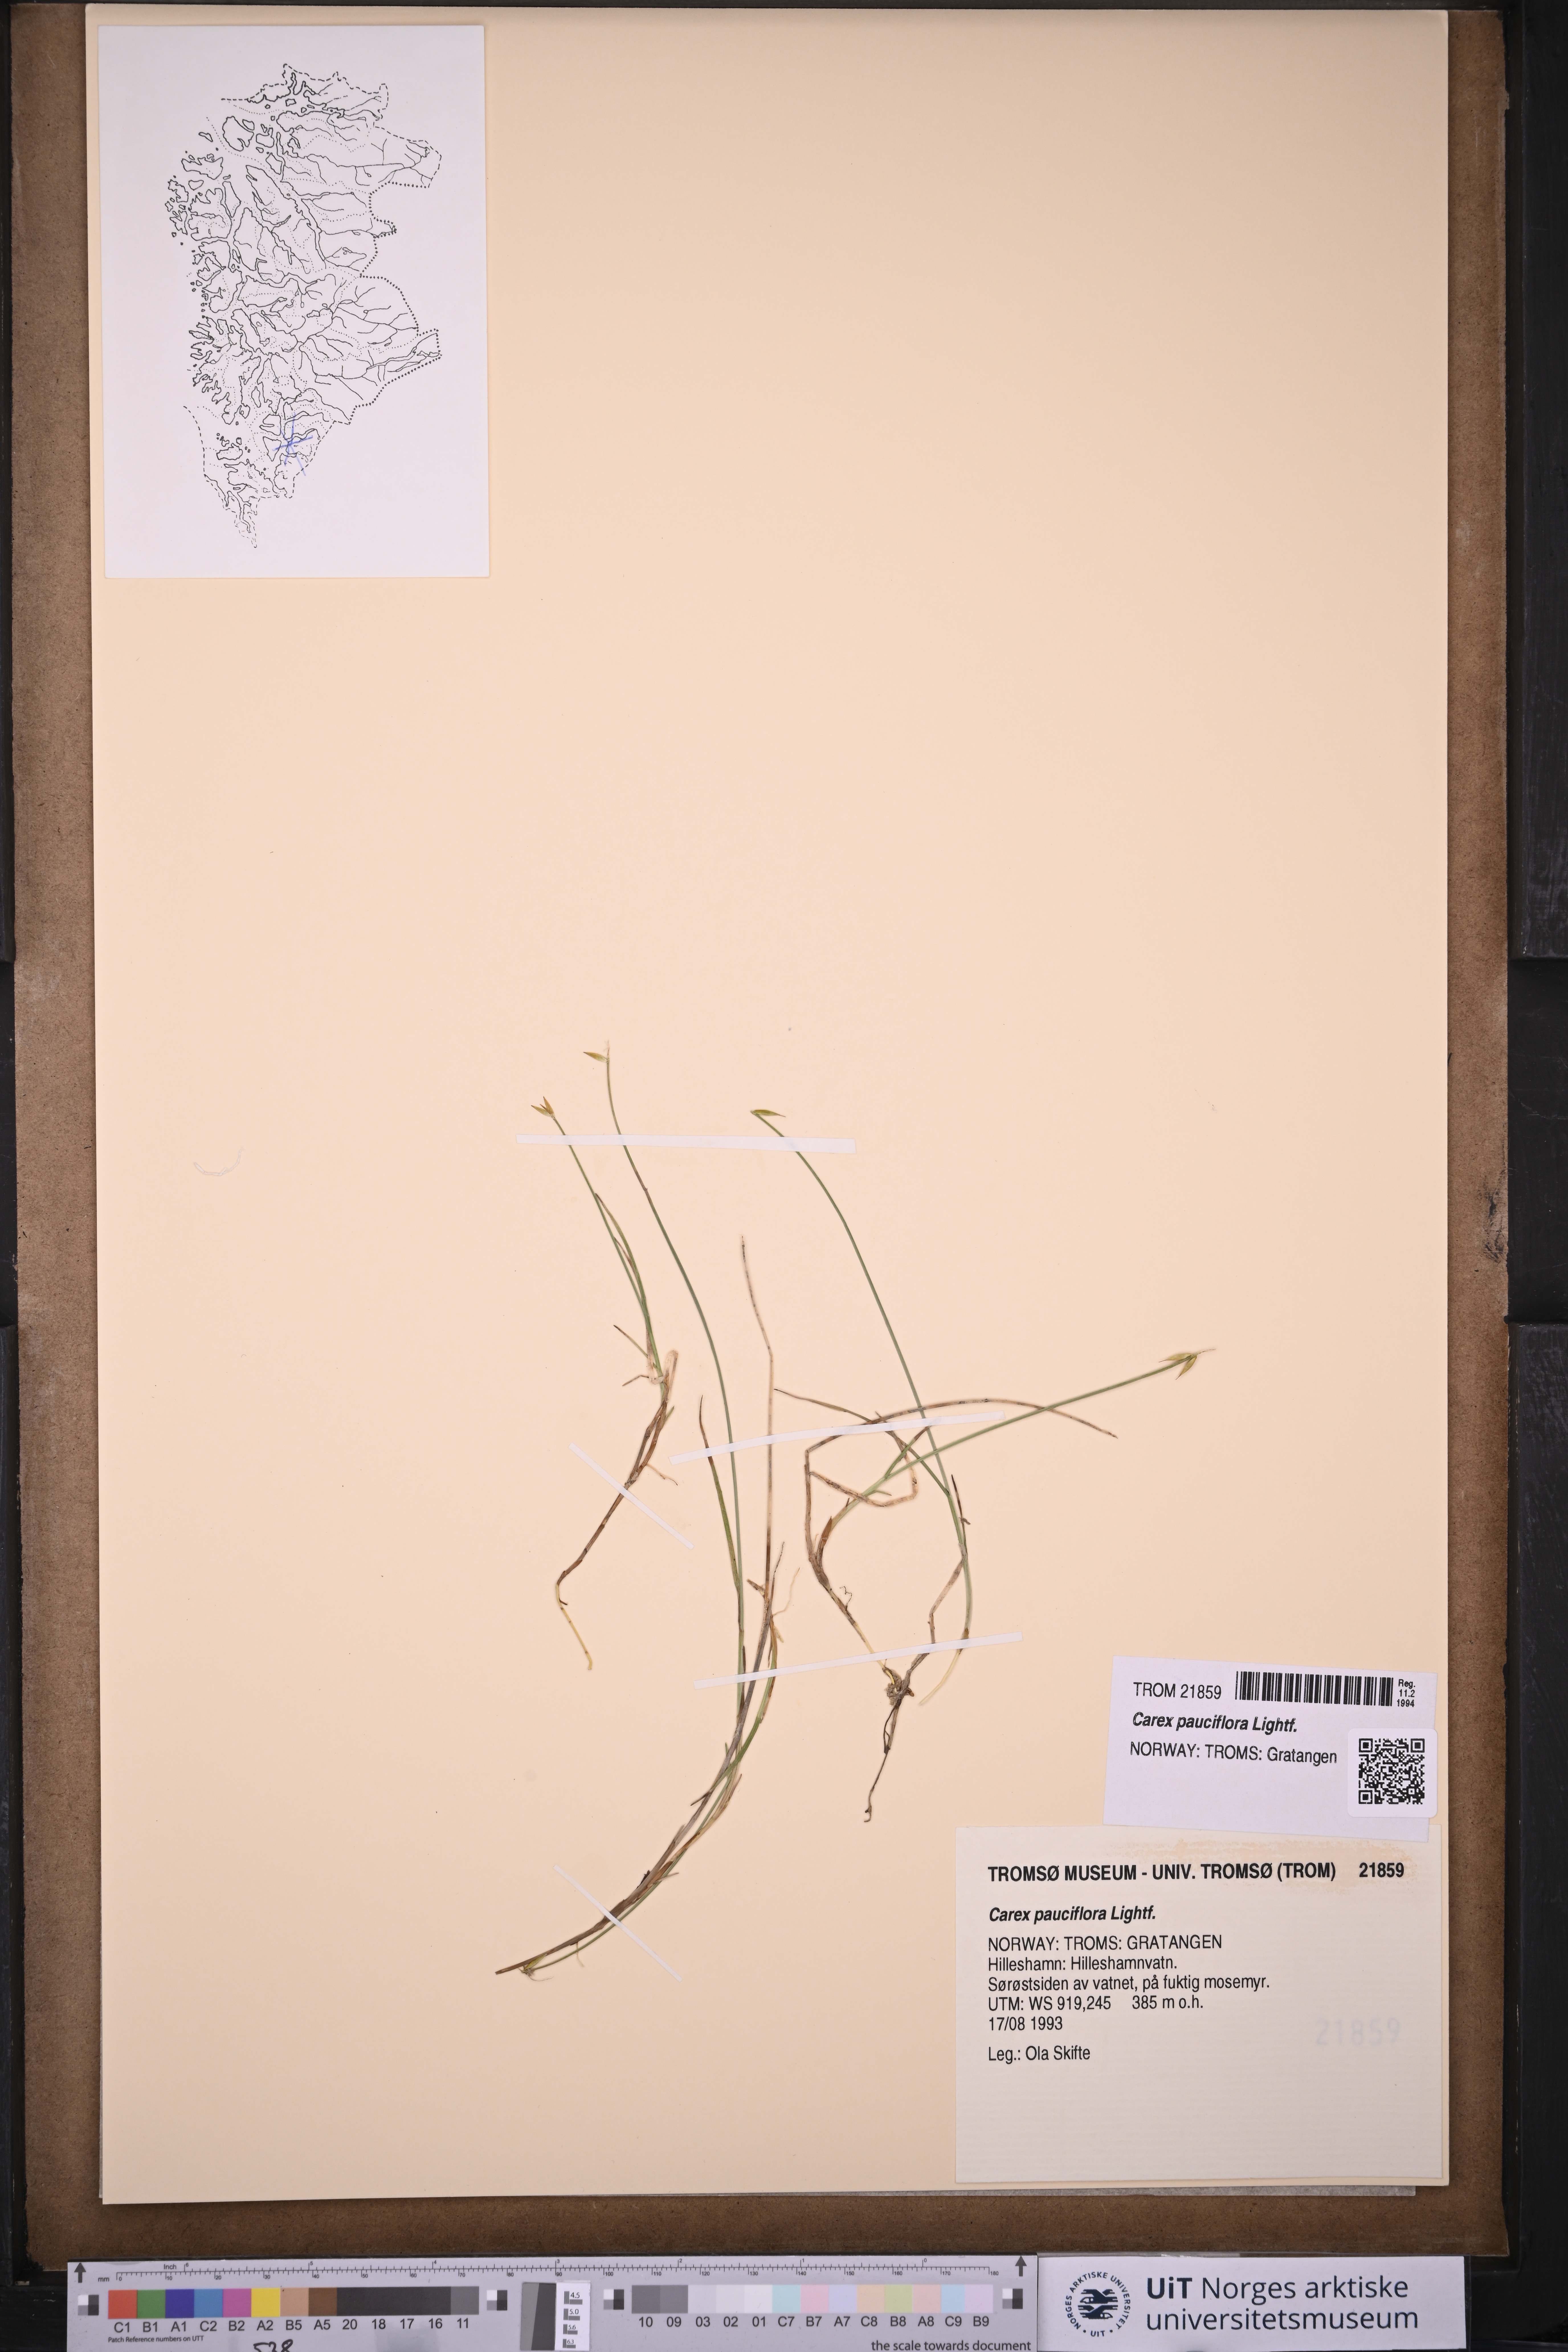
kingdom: Plantae
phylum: Tracheophyta
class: Liliopsida
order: Poales
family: Cyperaceae
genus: Carex
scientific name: Carex pauciflora
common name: Few-flowered sedge
